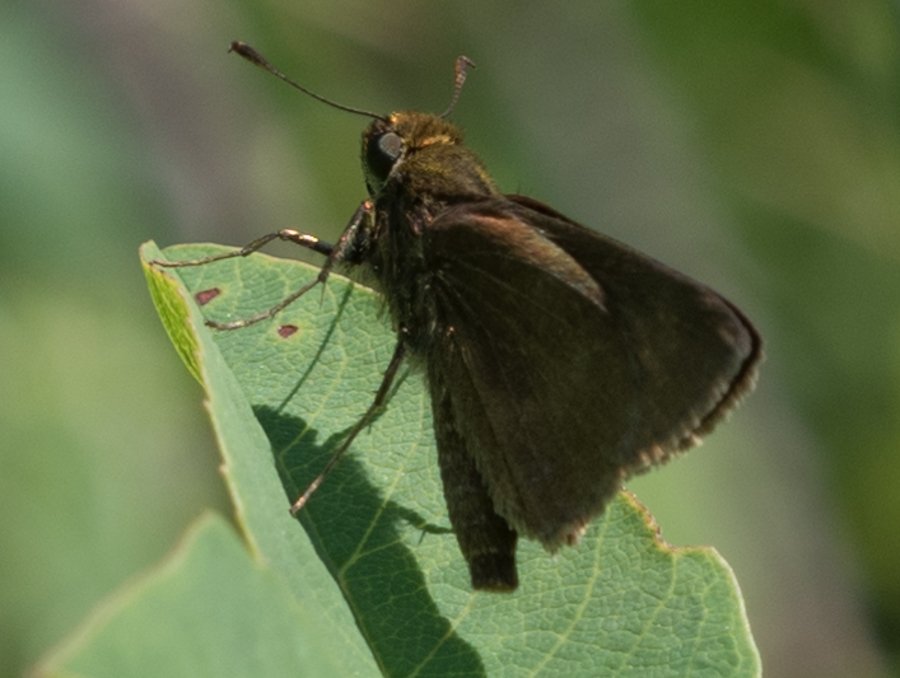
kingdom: Animalia
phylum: Arthropoda
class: Insecta
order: Lepidoptera
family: Hesperiidae
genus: Euphyes
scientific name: Euphyes vestris
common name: Dun Skipper
